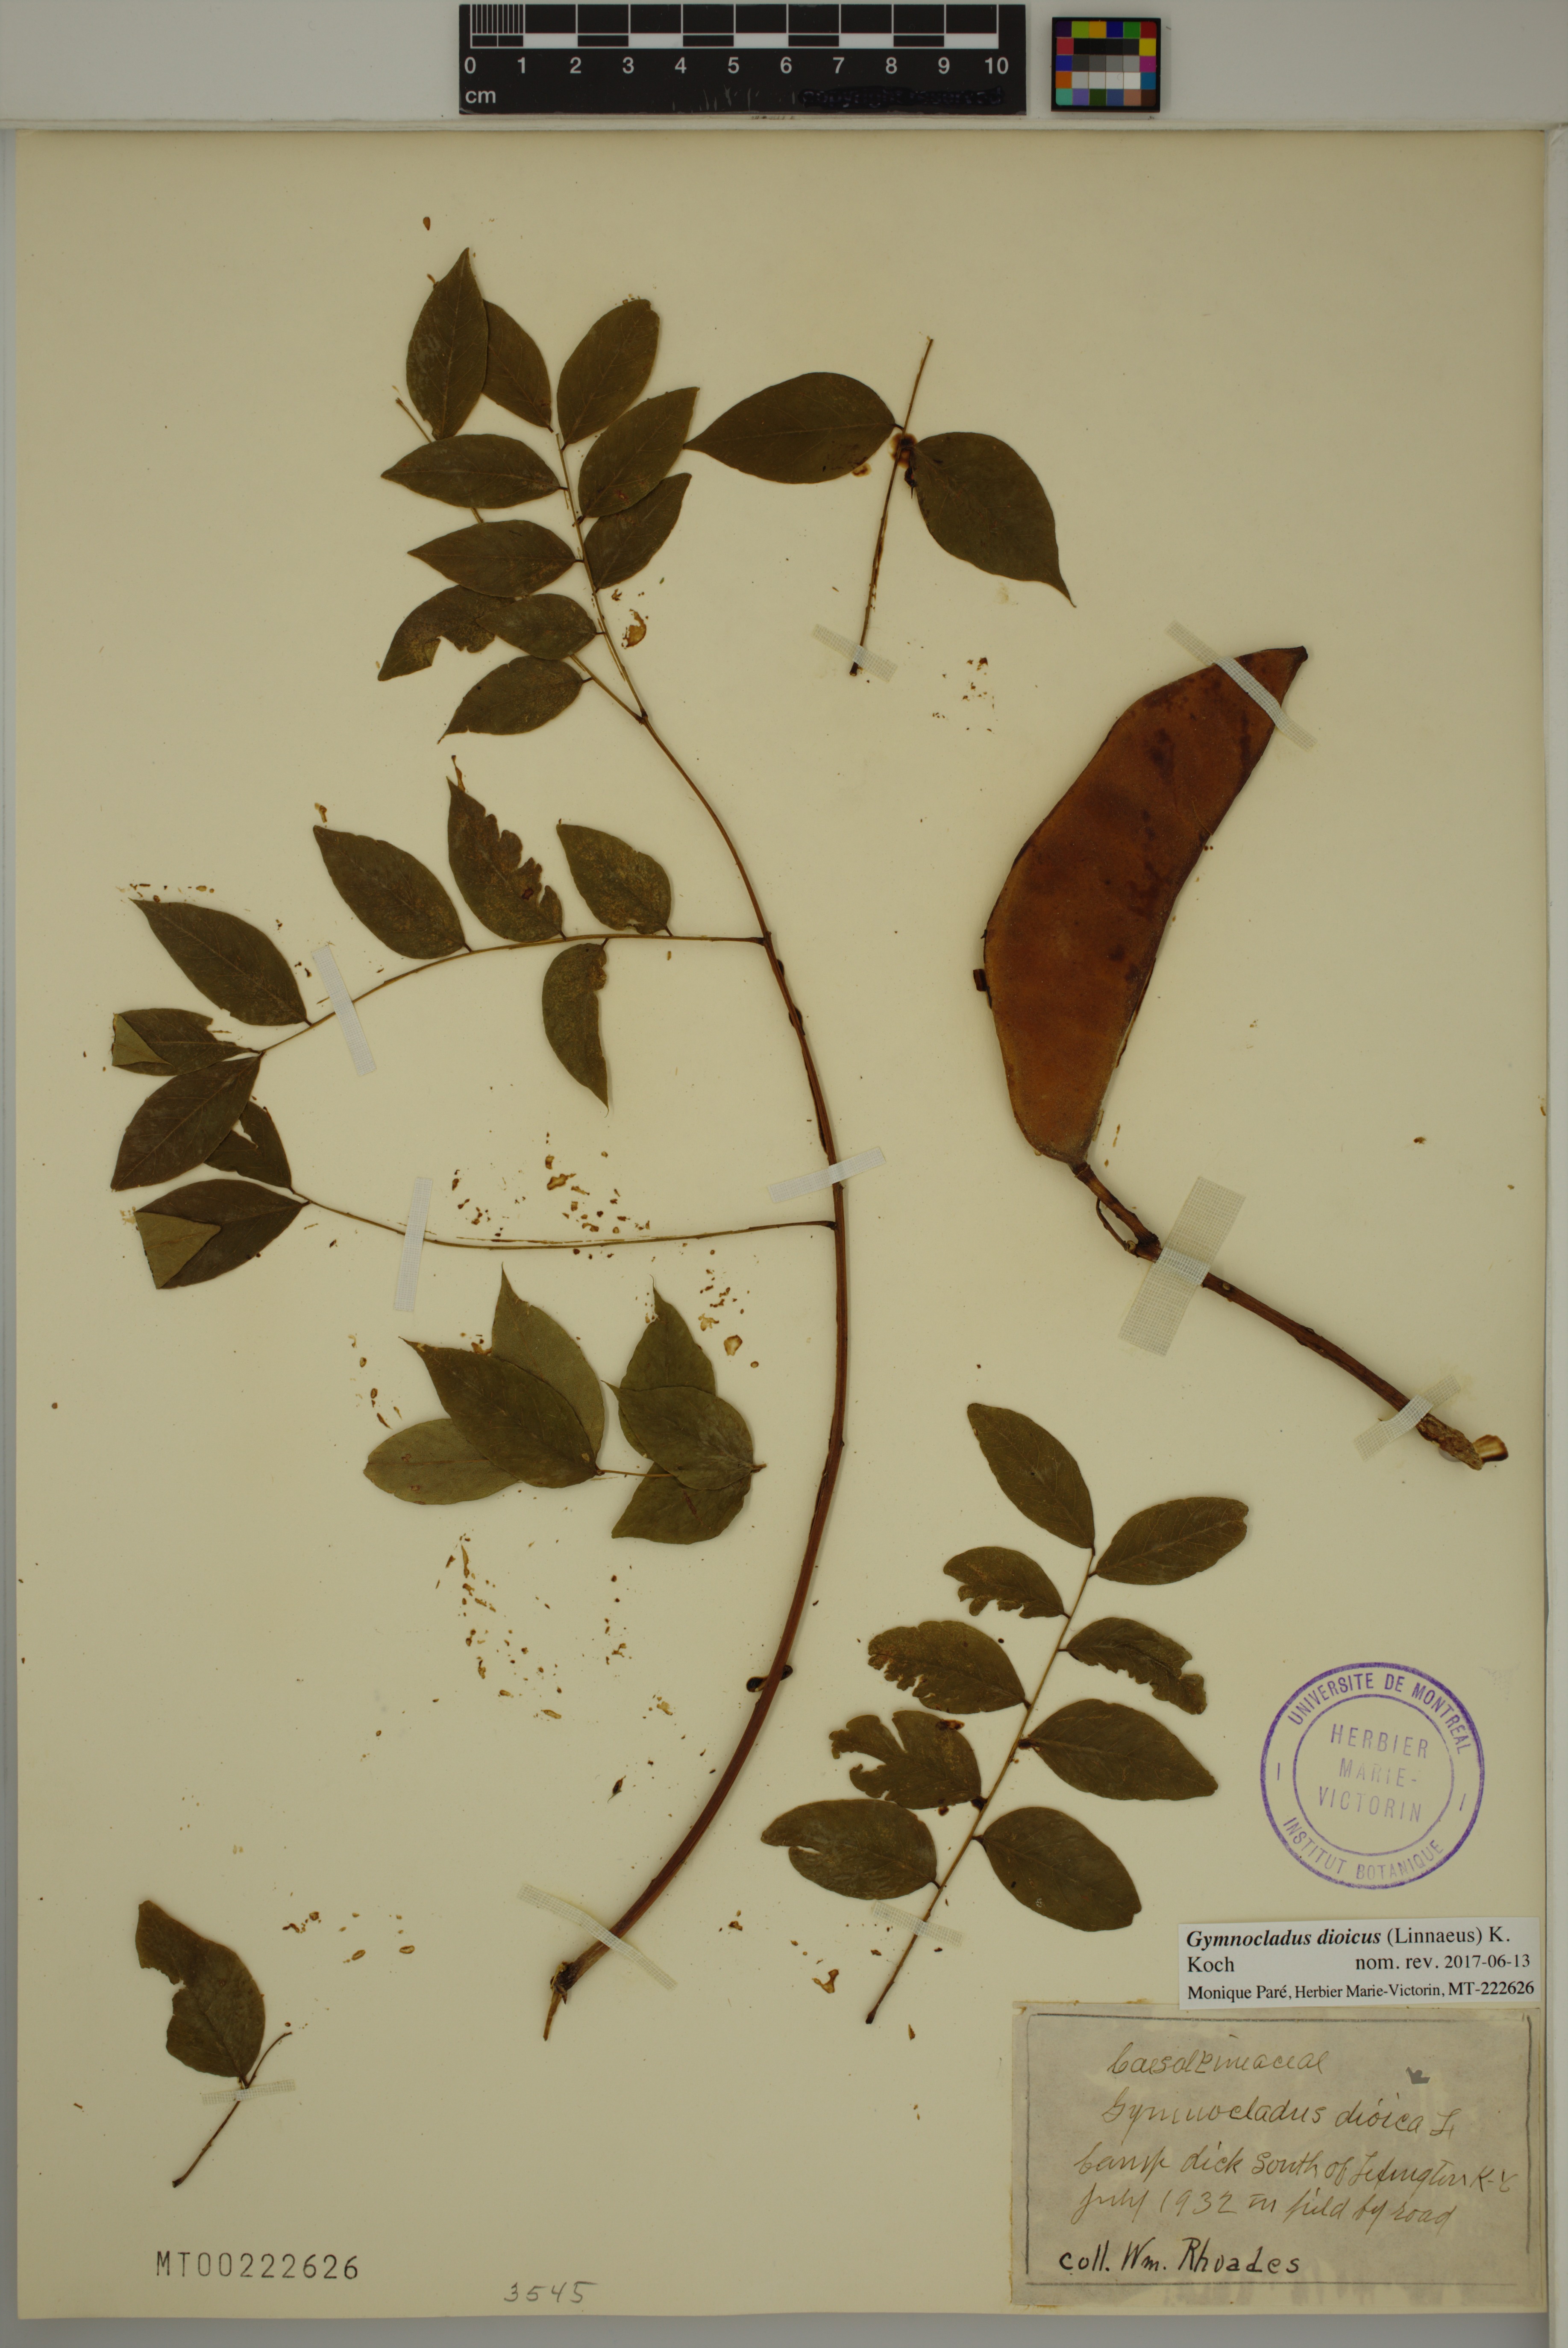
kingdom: Plantae
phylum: Tracheophyta
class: Magnoliopsida
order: Fabales
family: Fabaceae
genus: Gymnocladus
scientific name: Gymnocladus dioicus
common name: Kentucky coffee-tree
